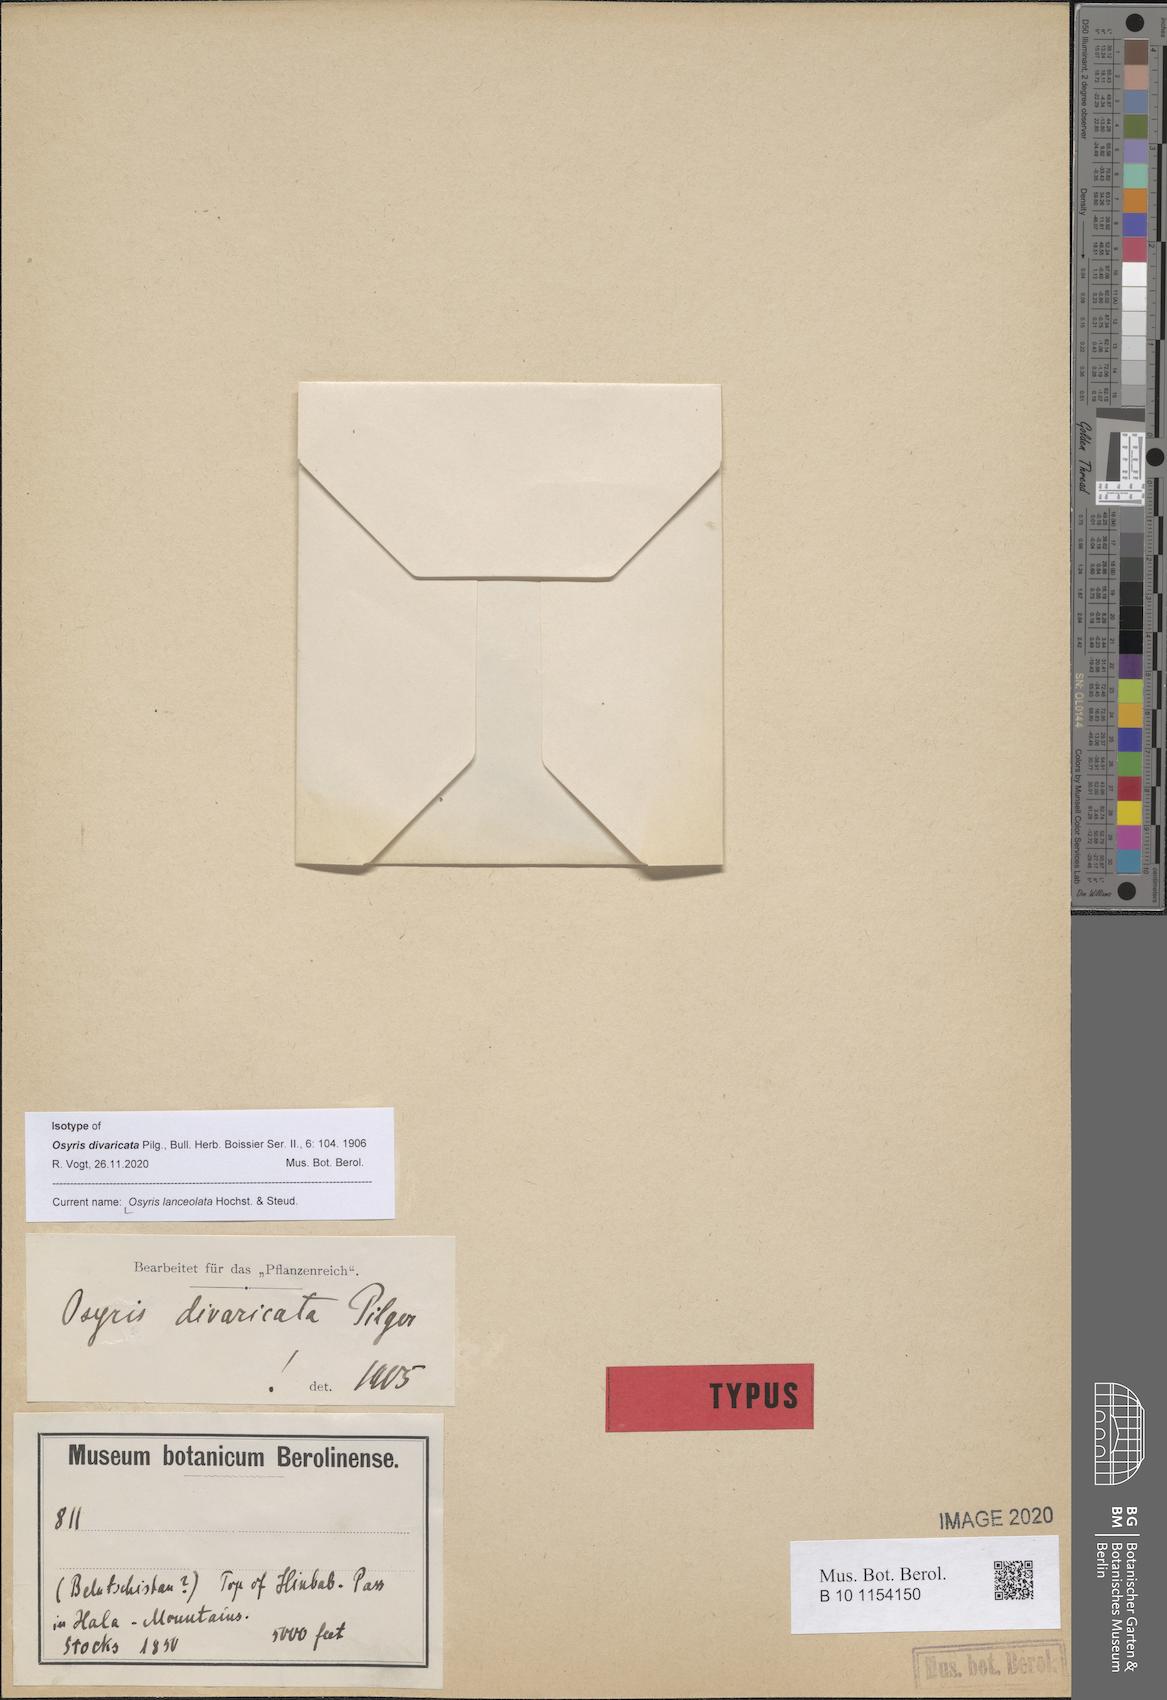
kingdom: Plantae
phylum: Tracheophyta
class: Magnoliopsida
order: Santalales
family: Santalaceae
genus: Osyris
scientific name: Osyris lanceolata
